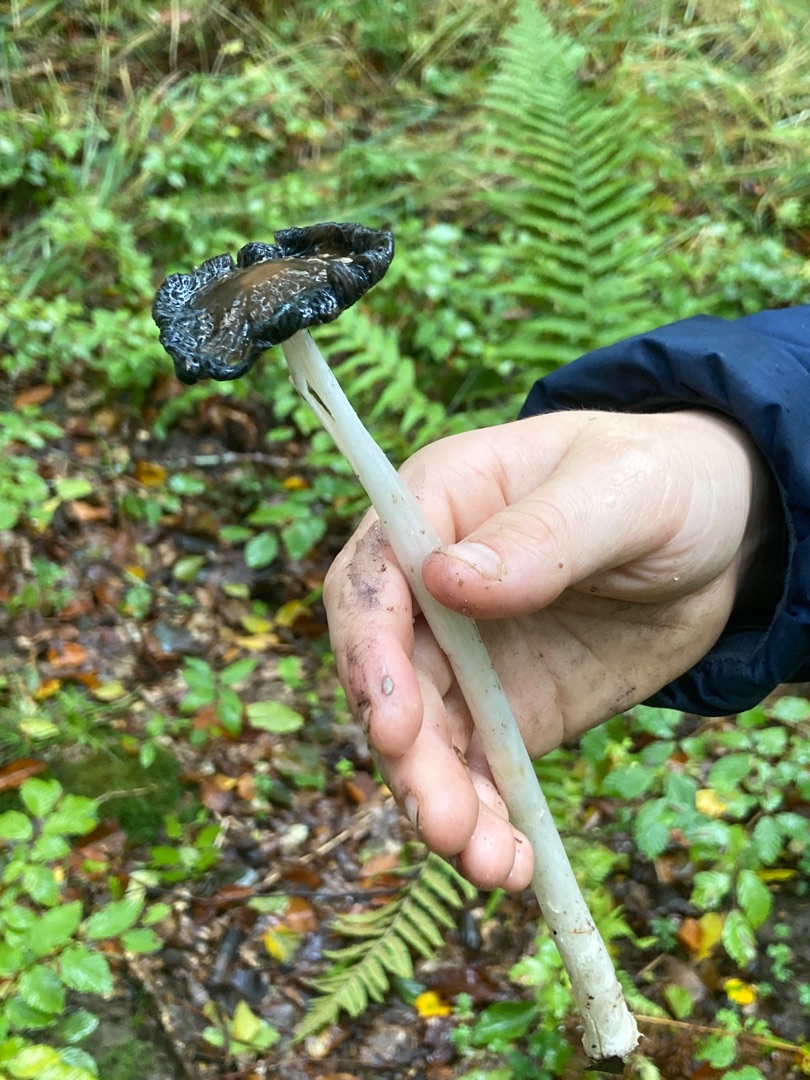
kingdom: Fungi
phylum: Basidiomycota
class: Agaricomycetes
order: Agaricales
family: Psathyrellaceae
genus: Coprinopsis
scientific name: Coprinopsis picacea
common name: Skade-blækhat
